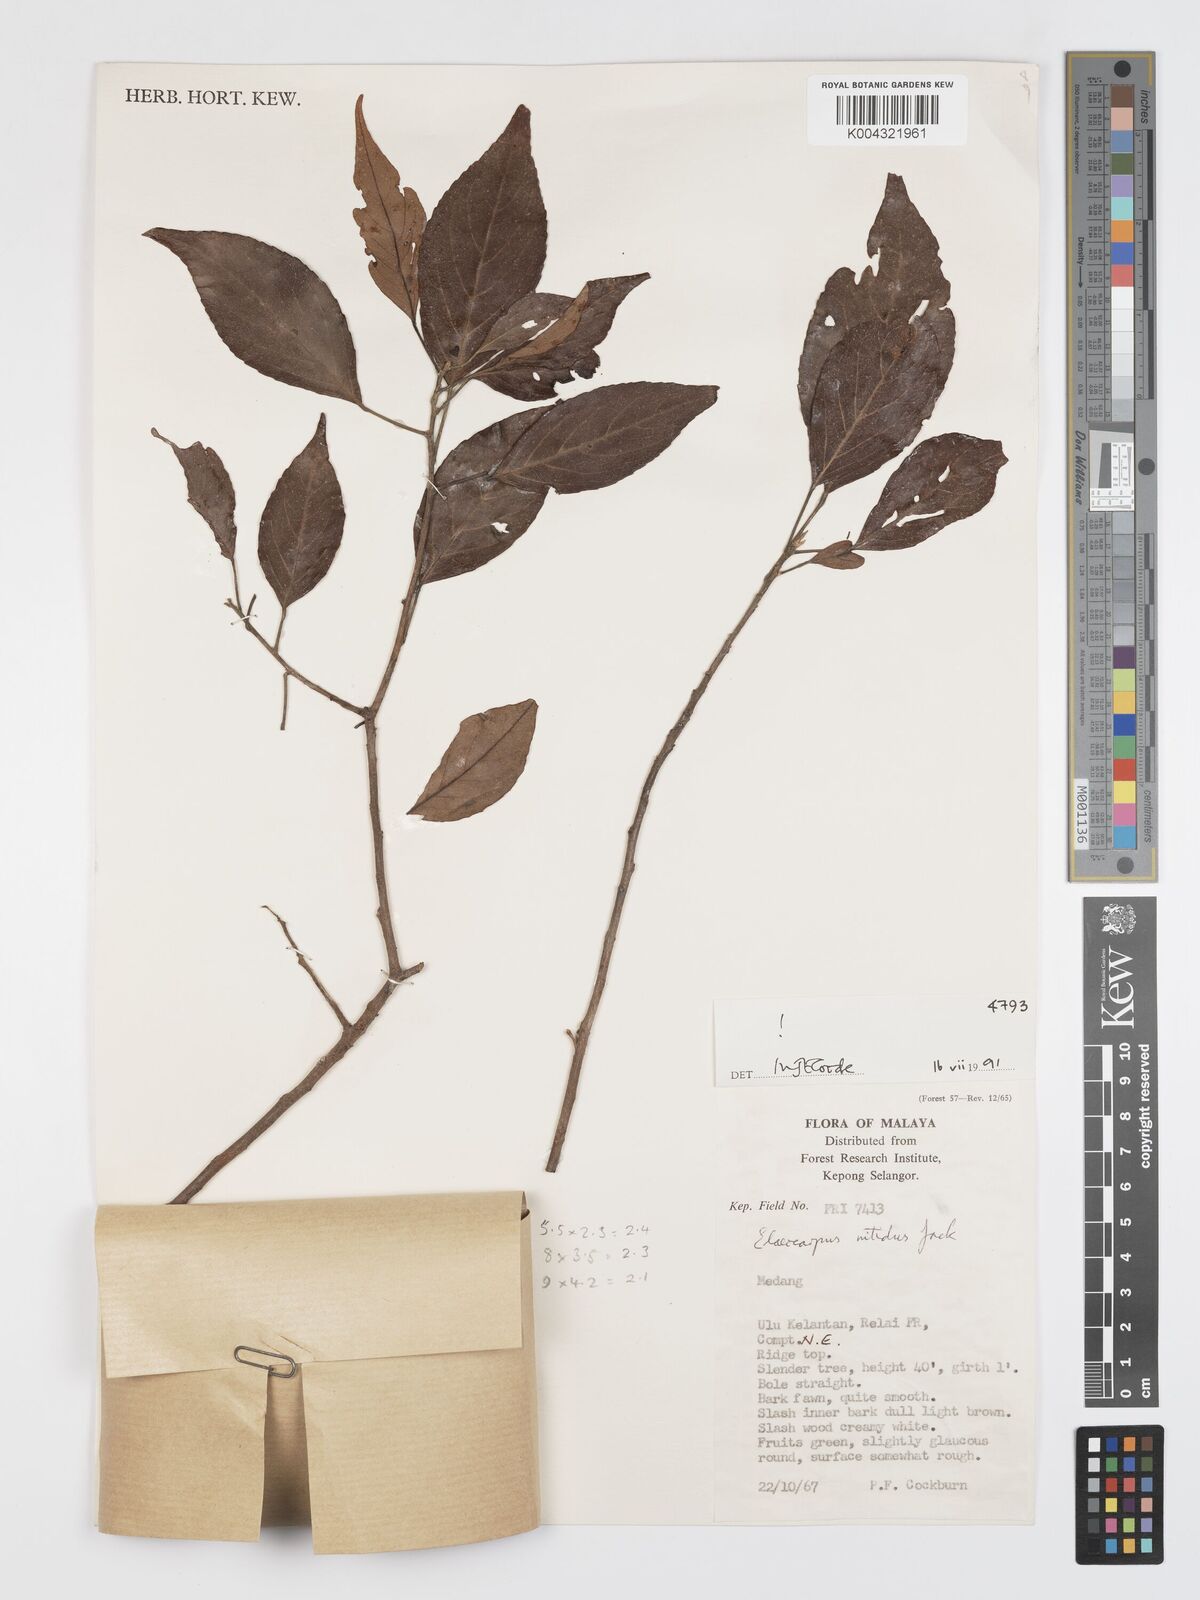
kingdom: Plantae
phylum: Tracheophyta
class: Magnoliopsida
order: Oxalidales
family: Elaeocarpaceae
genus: Elaeocarpus
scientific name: Elaeocarpus nitidus
